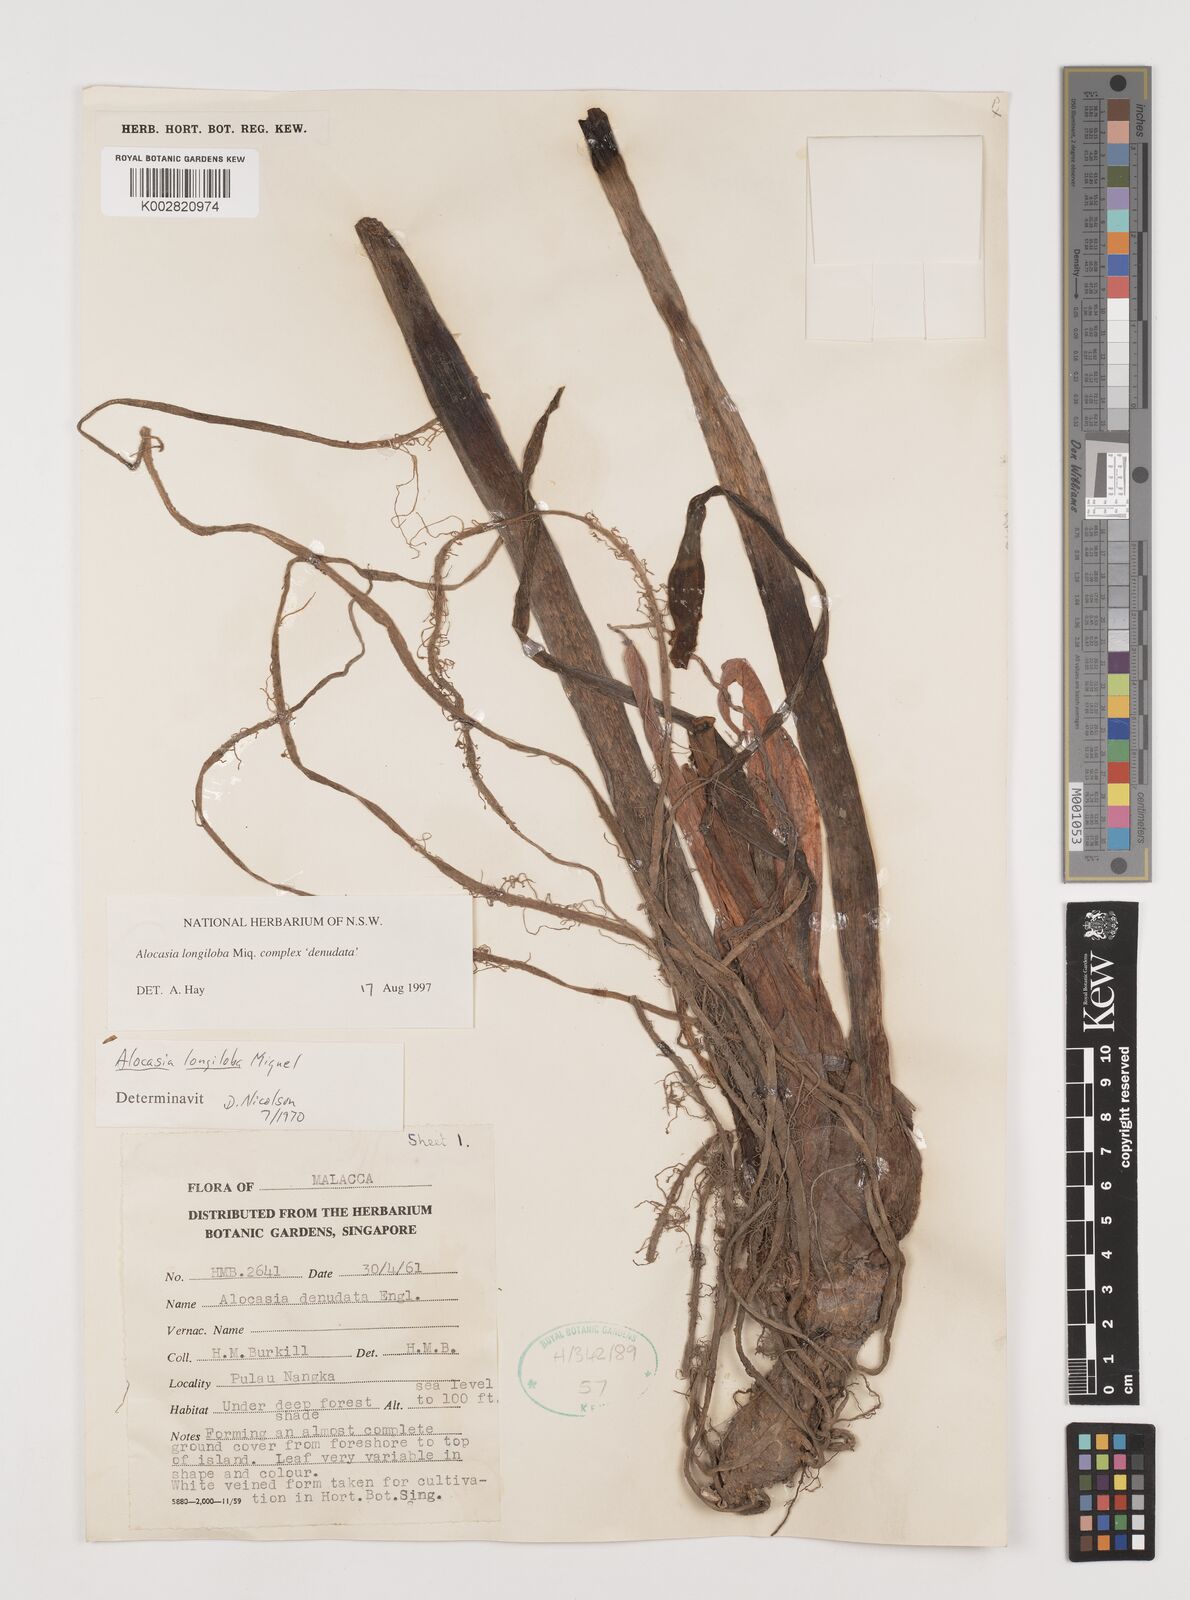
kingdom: Plantae
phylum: Tracheophyta
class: Liliopsida
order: Alismatales
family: Araceae
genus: Alocasia
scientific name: Alocasia longiloba
